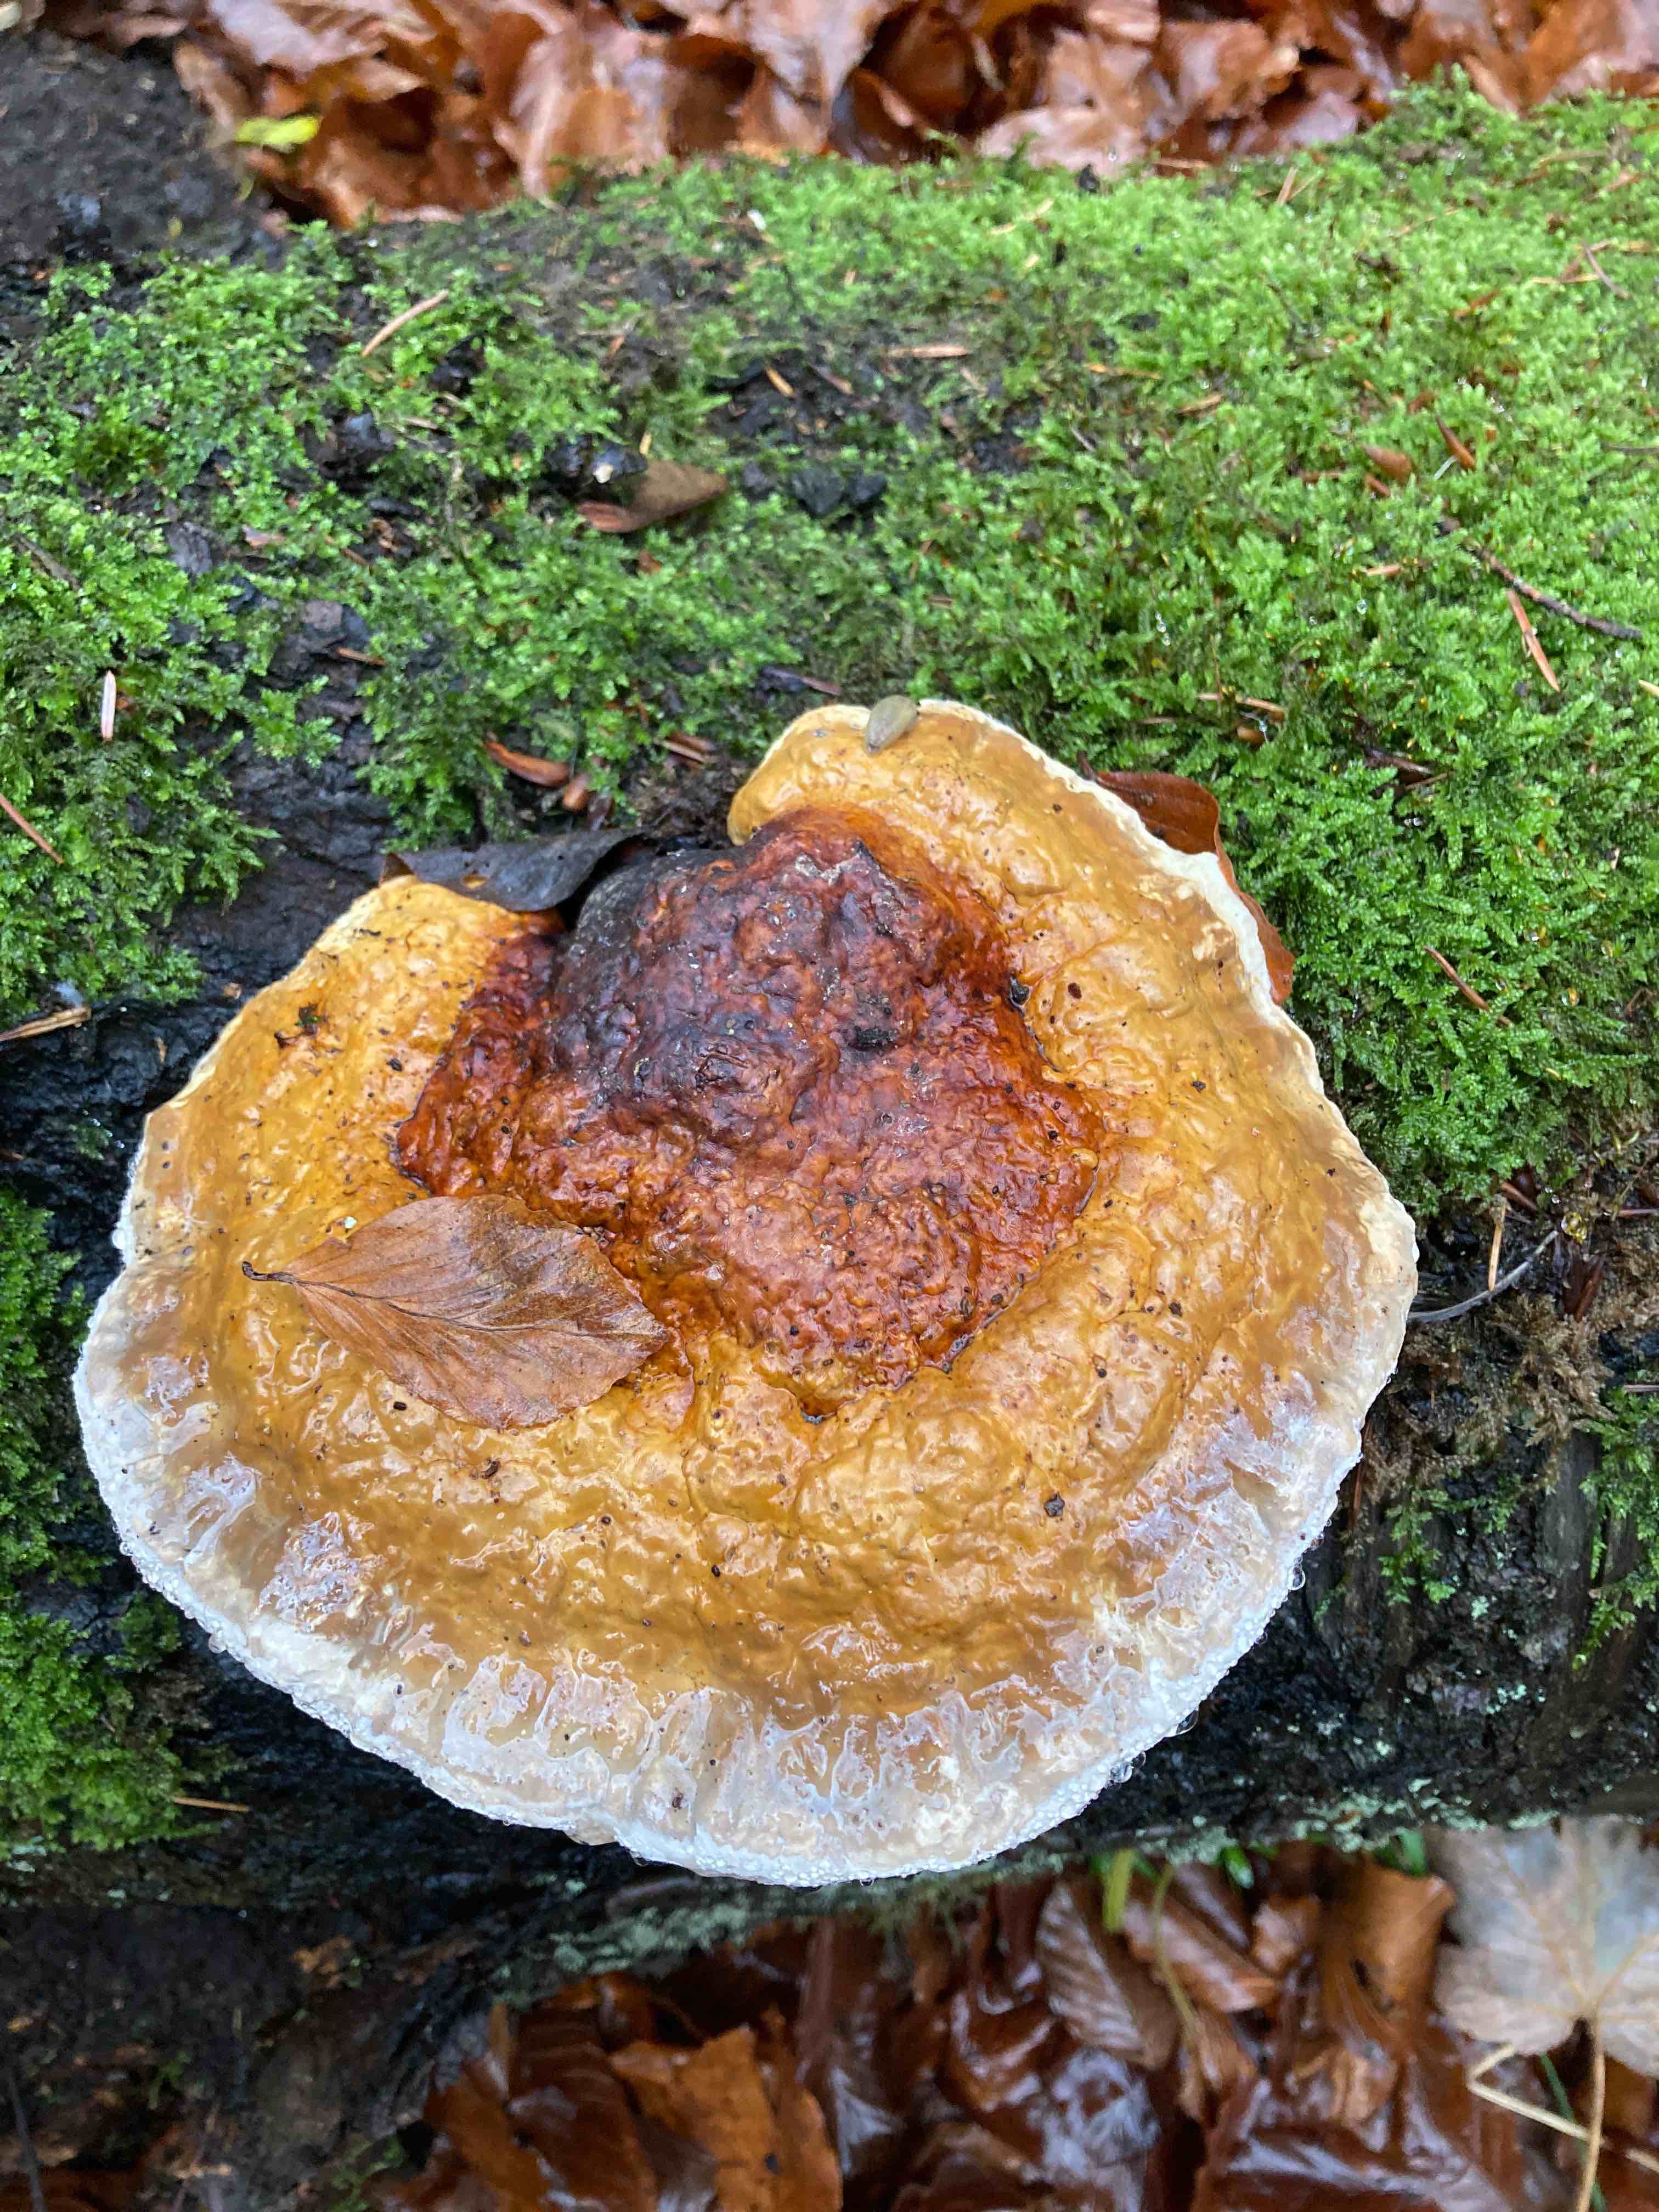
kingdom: Fungi
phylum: Basidiomycota
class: Agaricomycetes
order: Polyporales
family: Fomitopsidaceae
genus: Fomitopsis
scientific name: Fomitopsis pinicola
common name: randbæltet hovporesvamp
